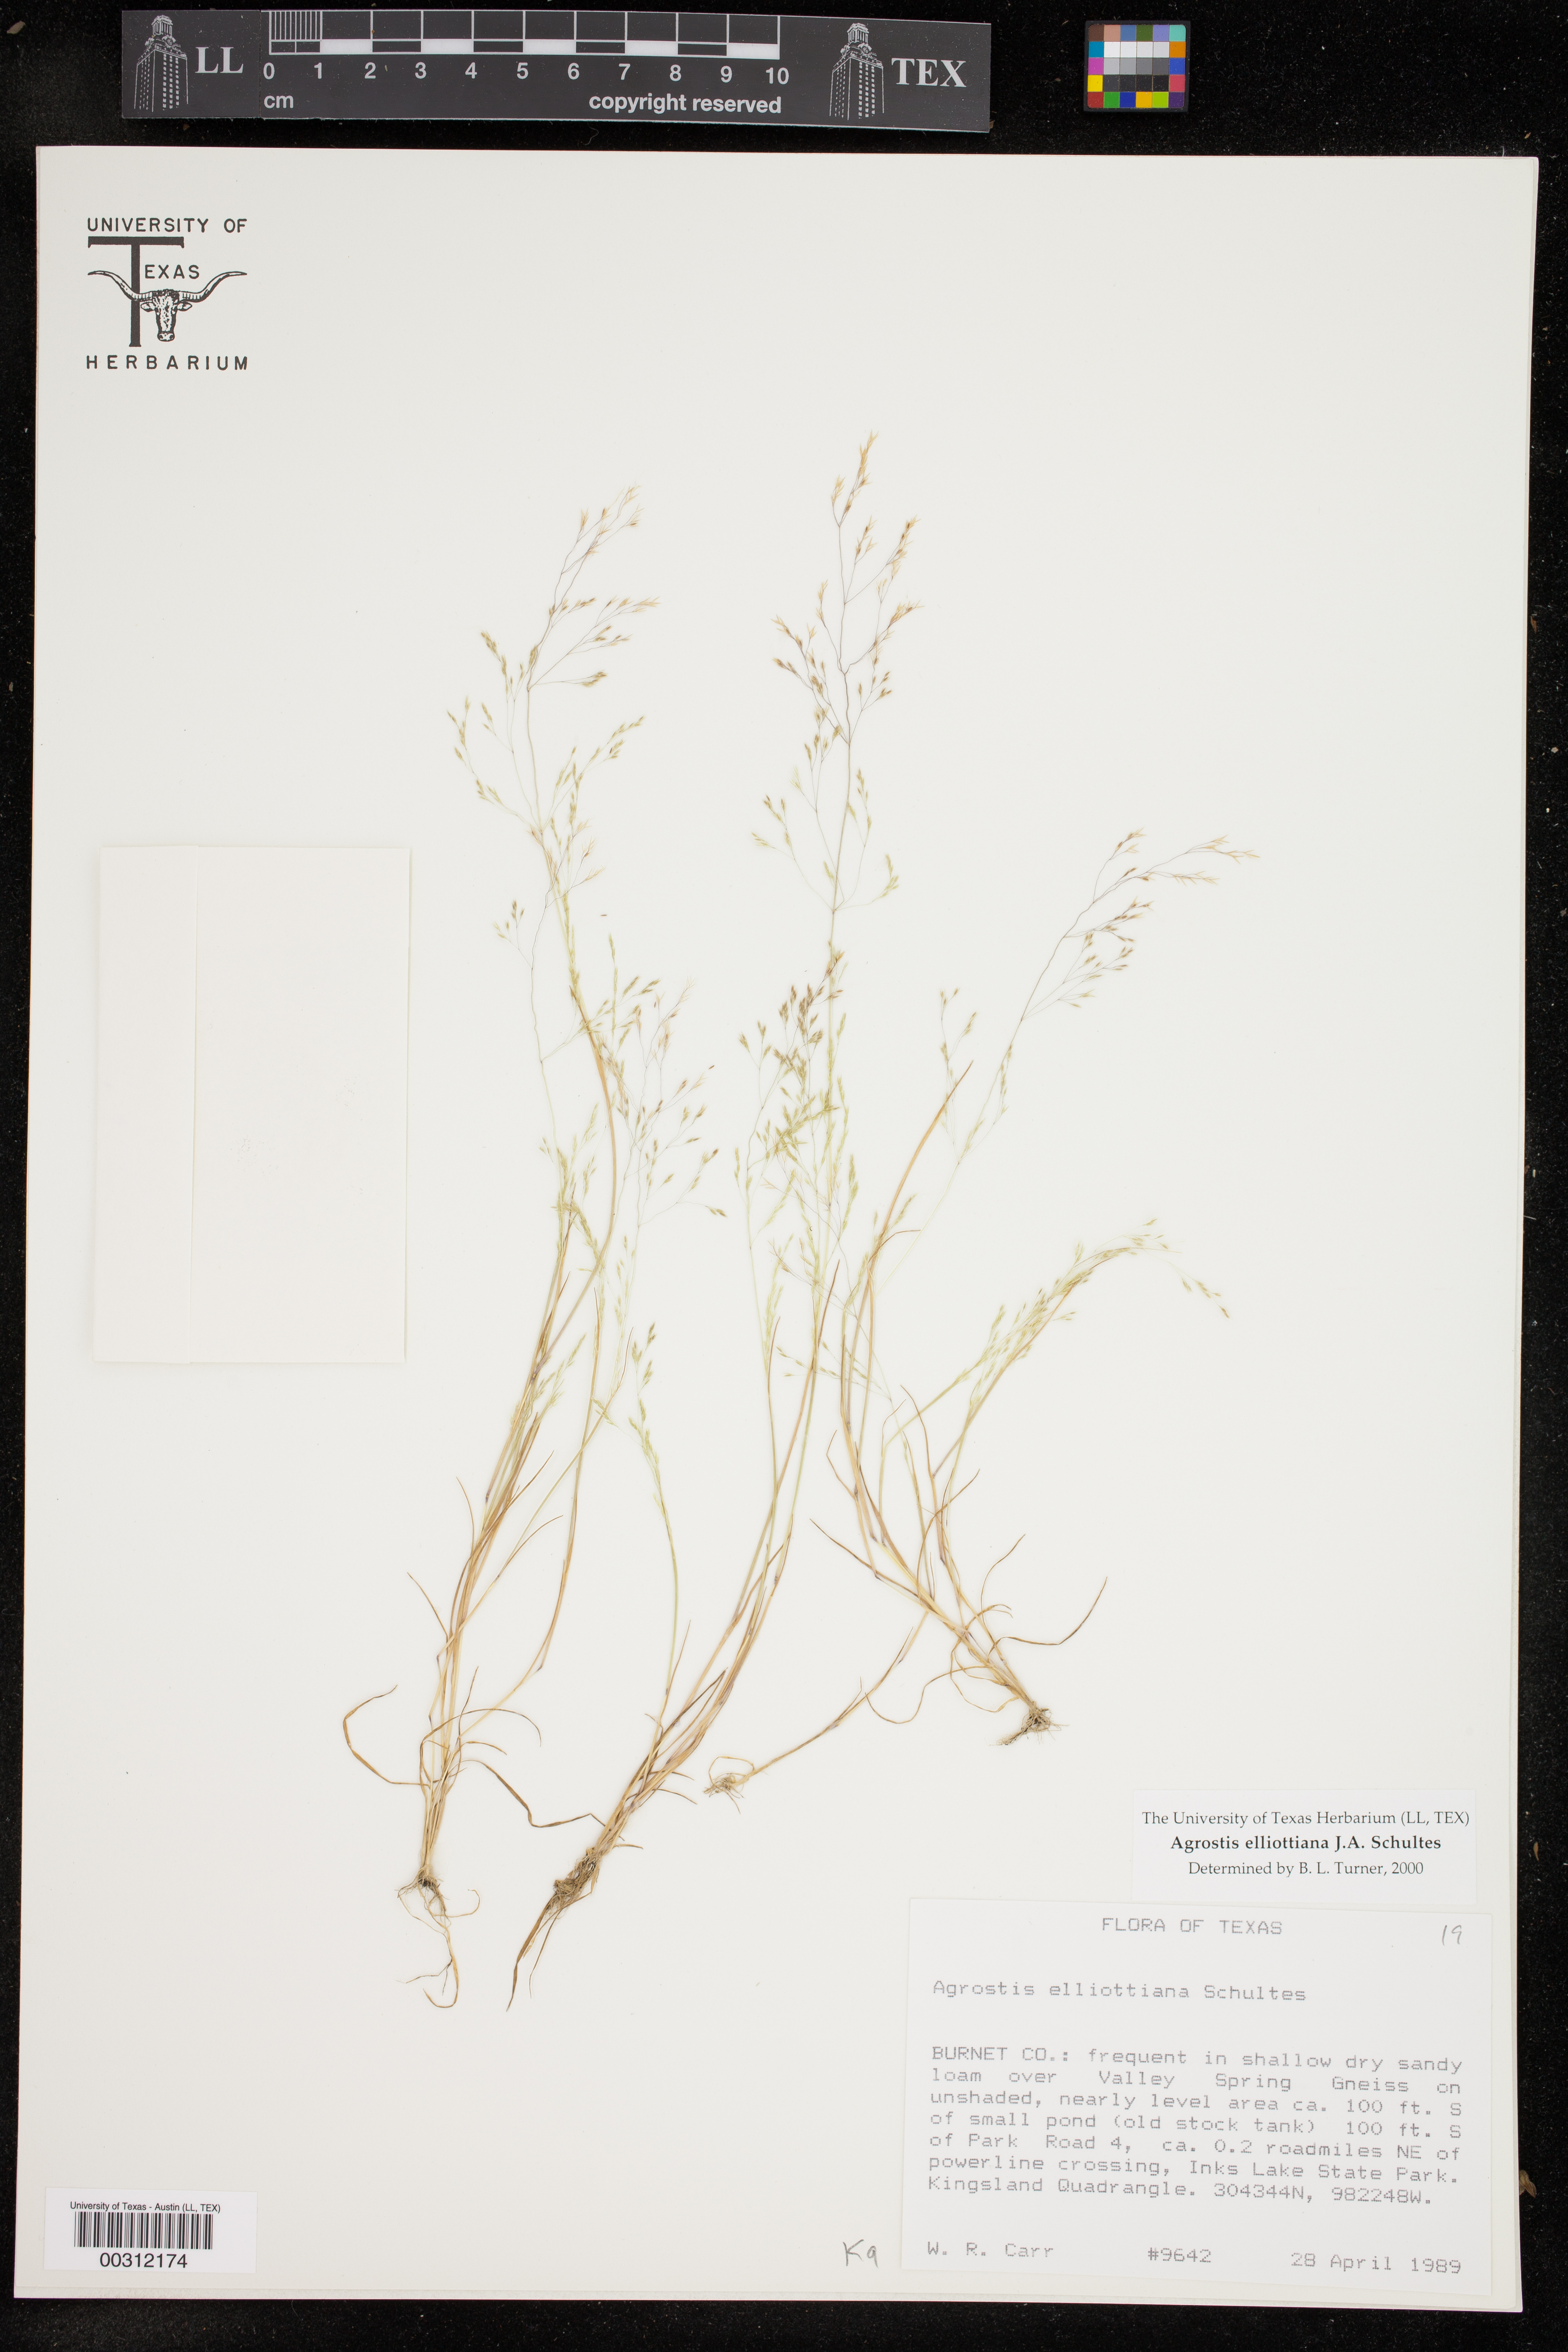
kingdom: Plantae
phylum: Tracheophyta
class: Liliopsida
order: Poales
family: Poaceae
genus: Agrostis
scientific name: Agrostis elliottiana
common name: Elliott's bent
